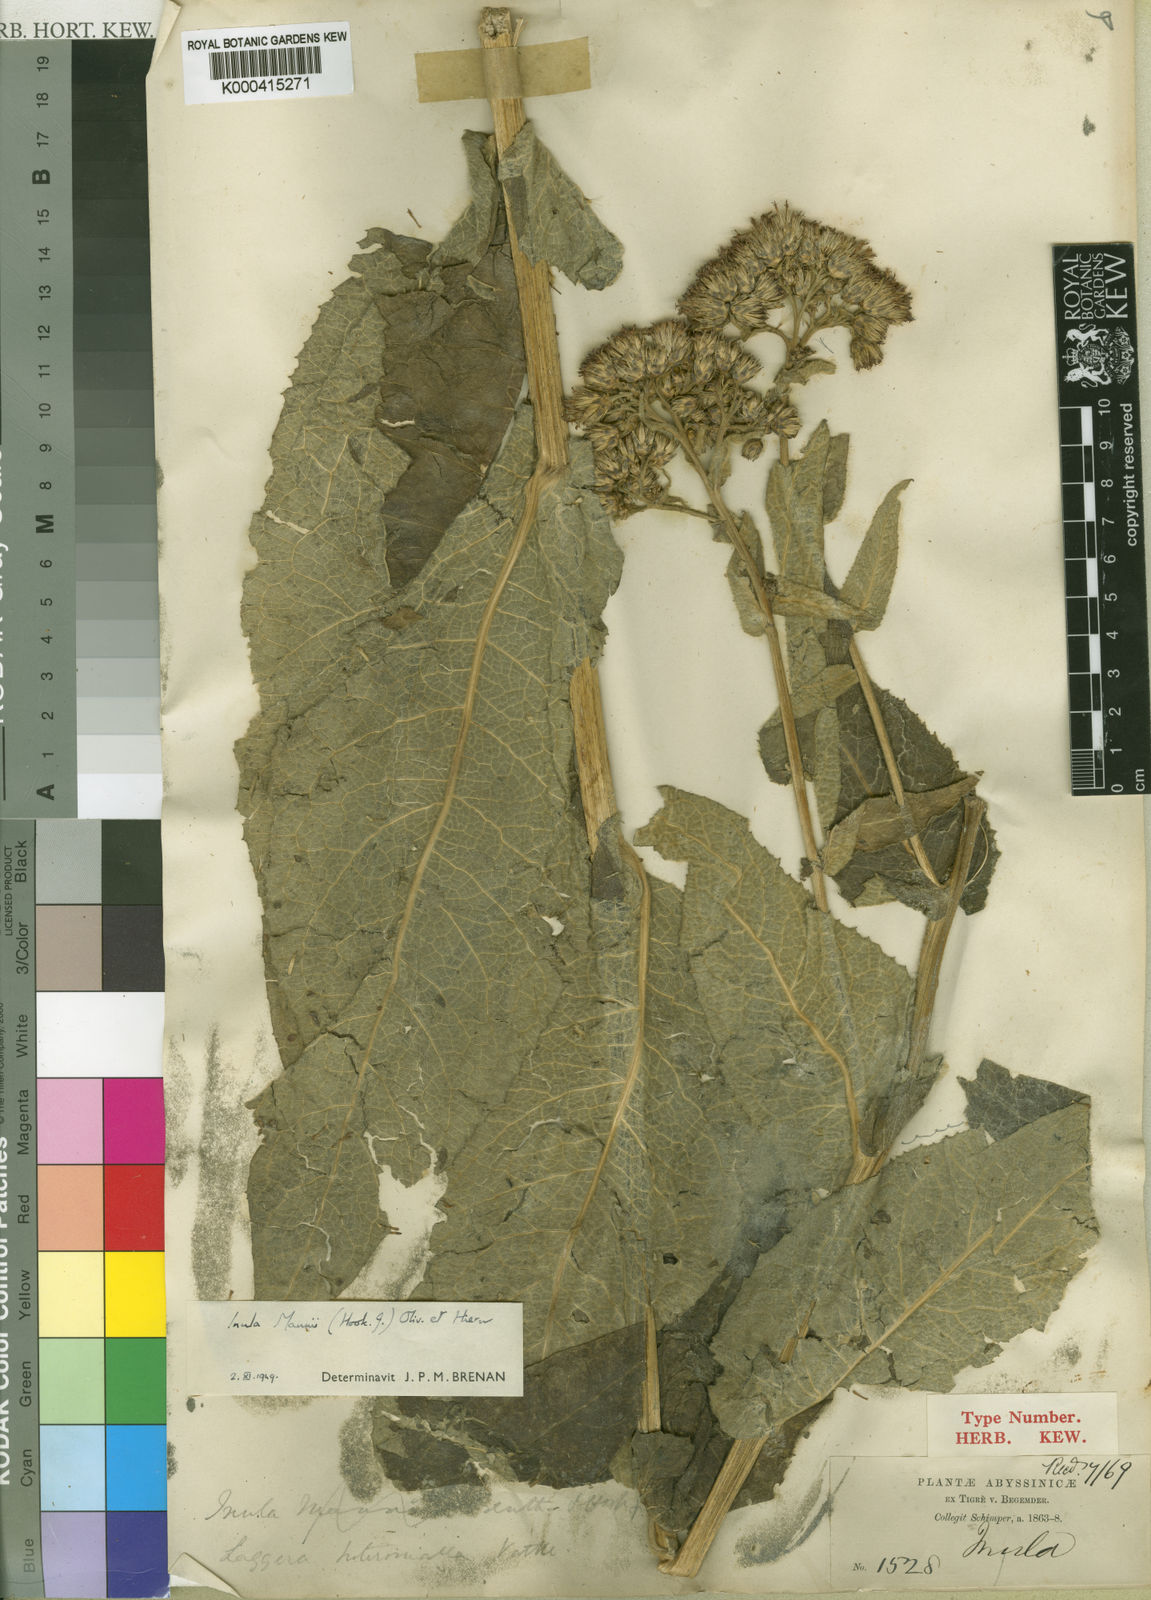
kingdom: Plantae
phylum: Tracheophyta
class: Magnoliopsida
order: Asterales
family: Asteraceae
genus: Inula
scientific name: Inula mannii
